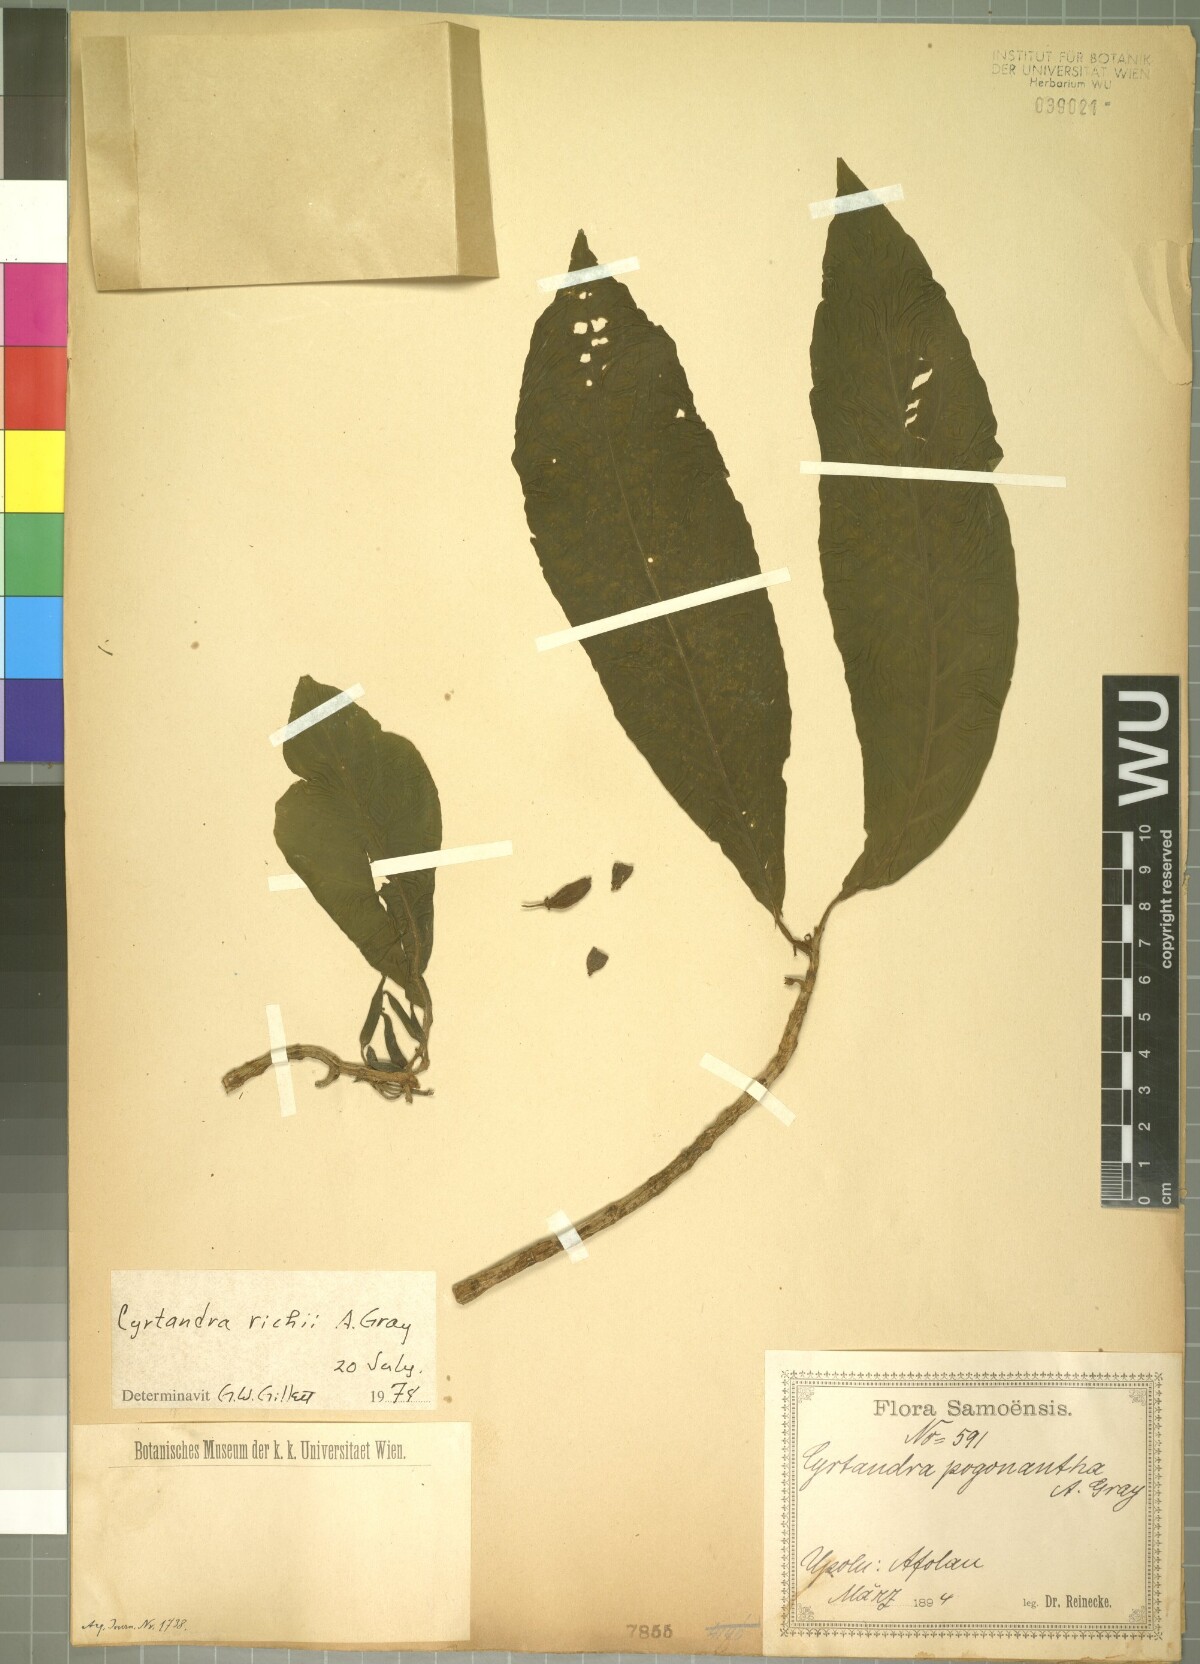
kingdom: Plantae
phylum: Tracheophyta
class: Magnoliopsida
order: Lamiales
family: Gesneriaceae
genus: Cyrtandra
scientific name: Cyrtandra richii
